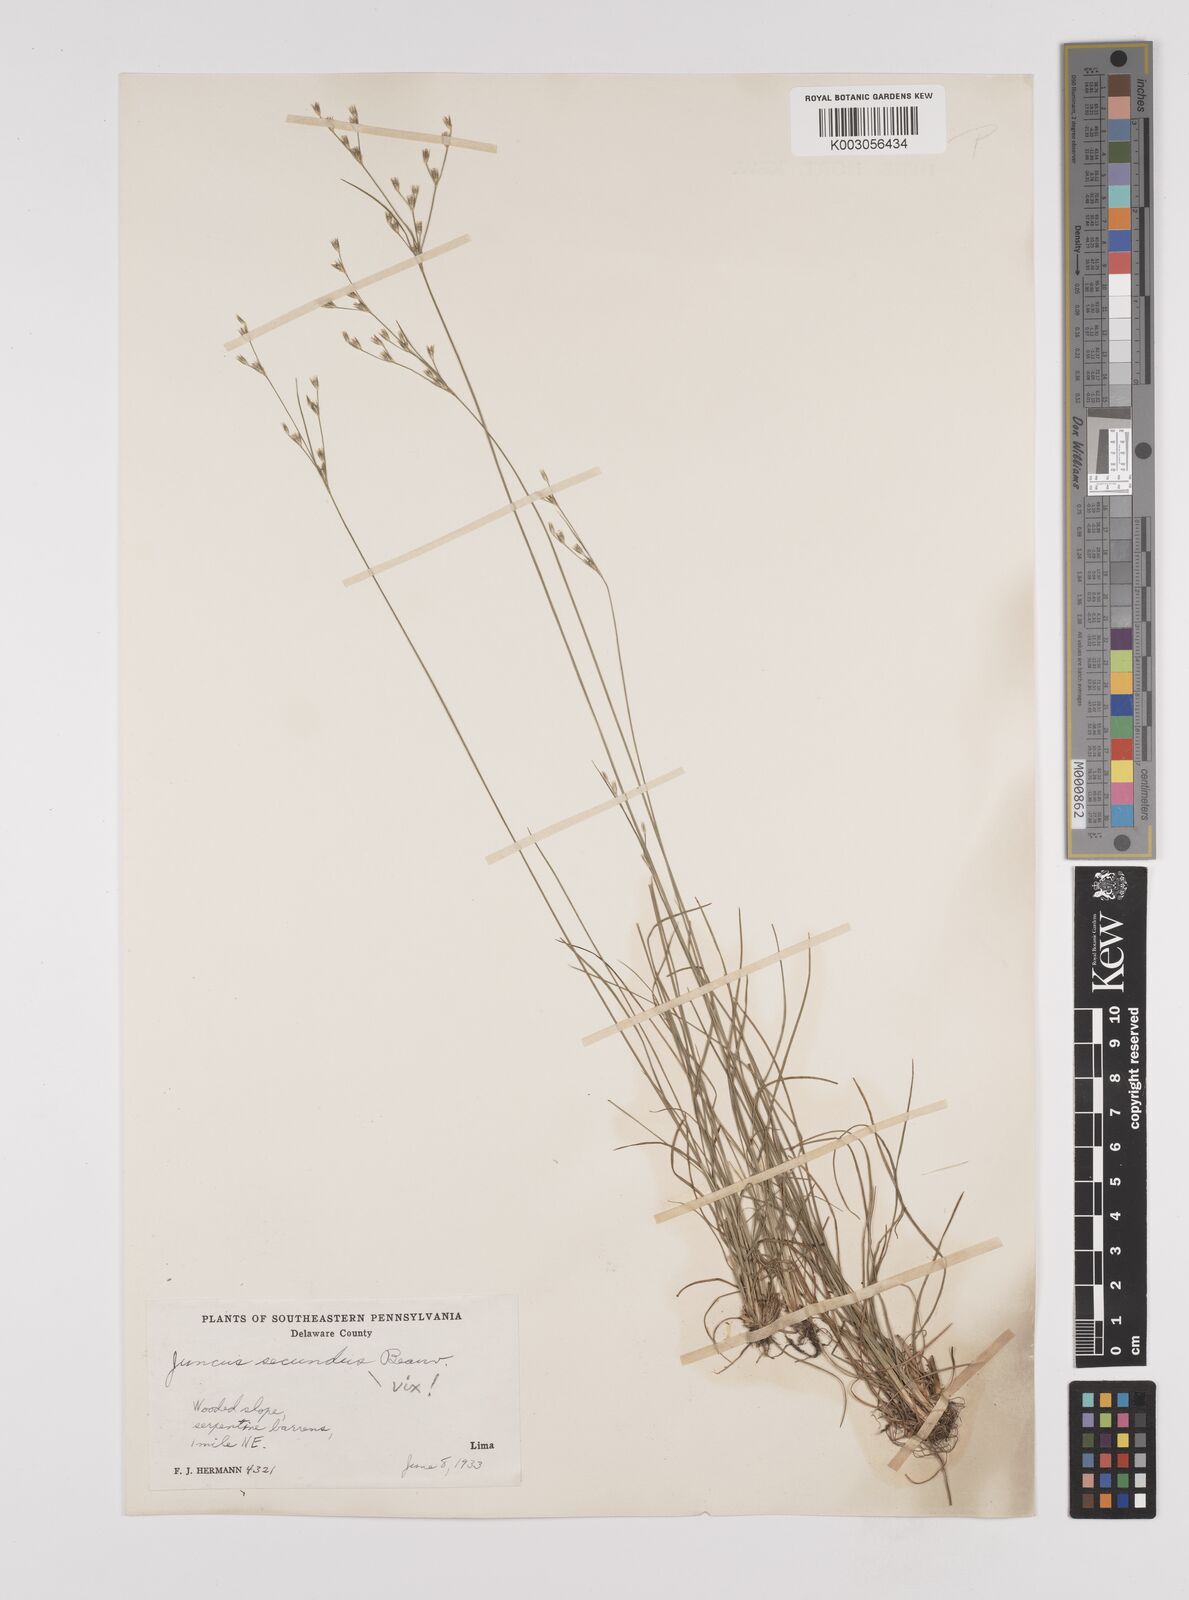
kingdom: Plantae
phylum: Tracheophyta
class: Liliopsida
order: Poales
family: Juncaceae
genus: Juncus
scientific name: Juncus anthelatus
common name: Giant path rush
